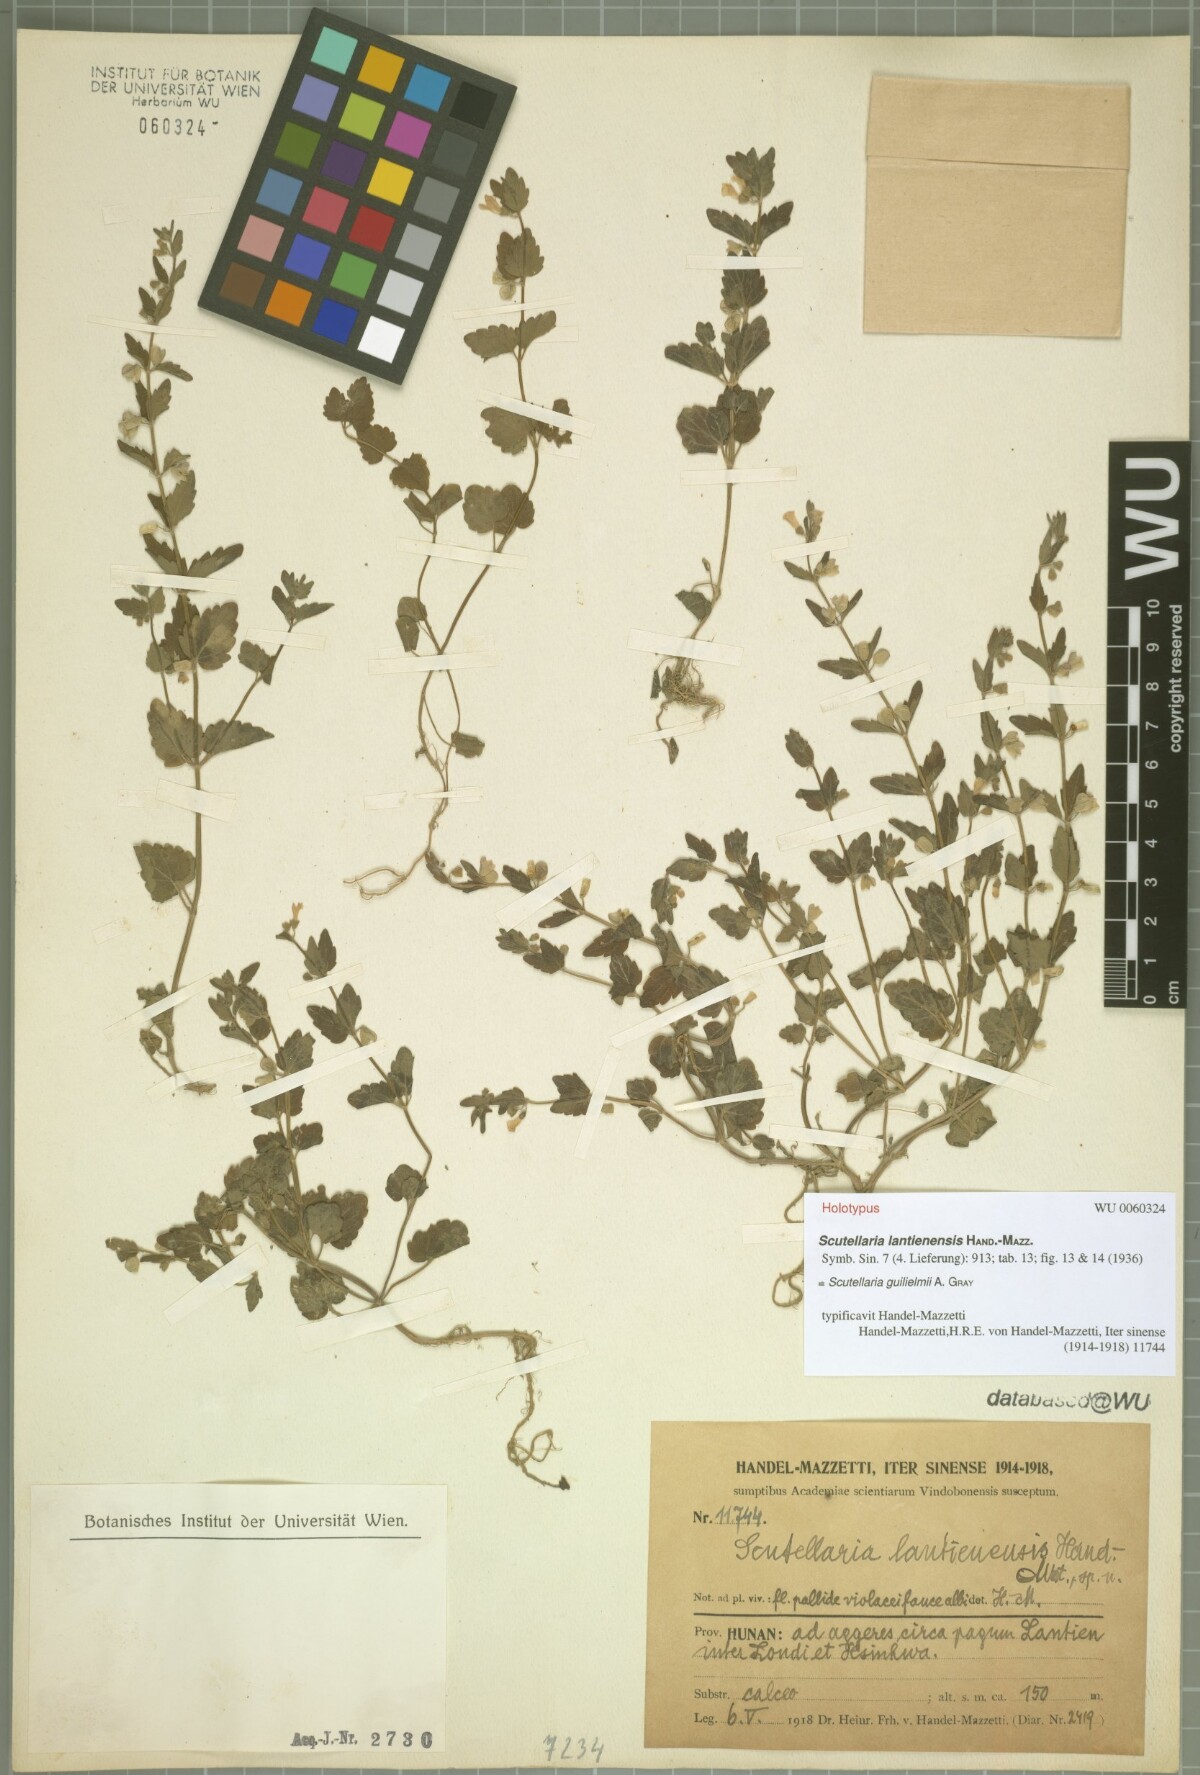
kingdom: Plantae
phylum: Tracheophyta
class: Magnoliopsida
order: Lamiales
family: Lamiaceae
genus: Scutellaria
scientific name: Scutellaria guilielmi
